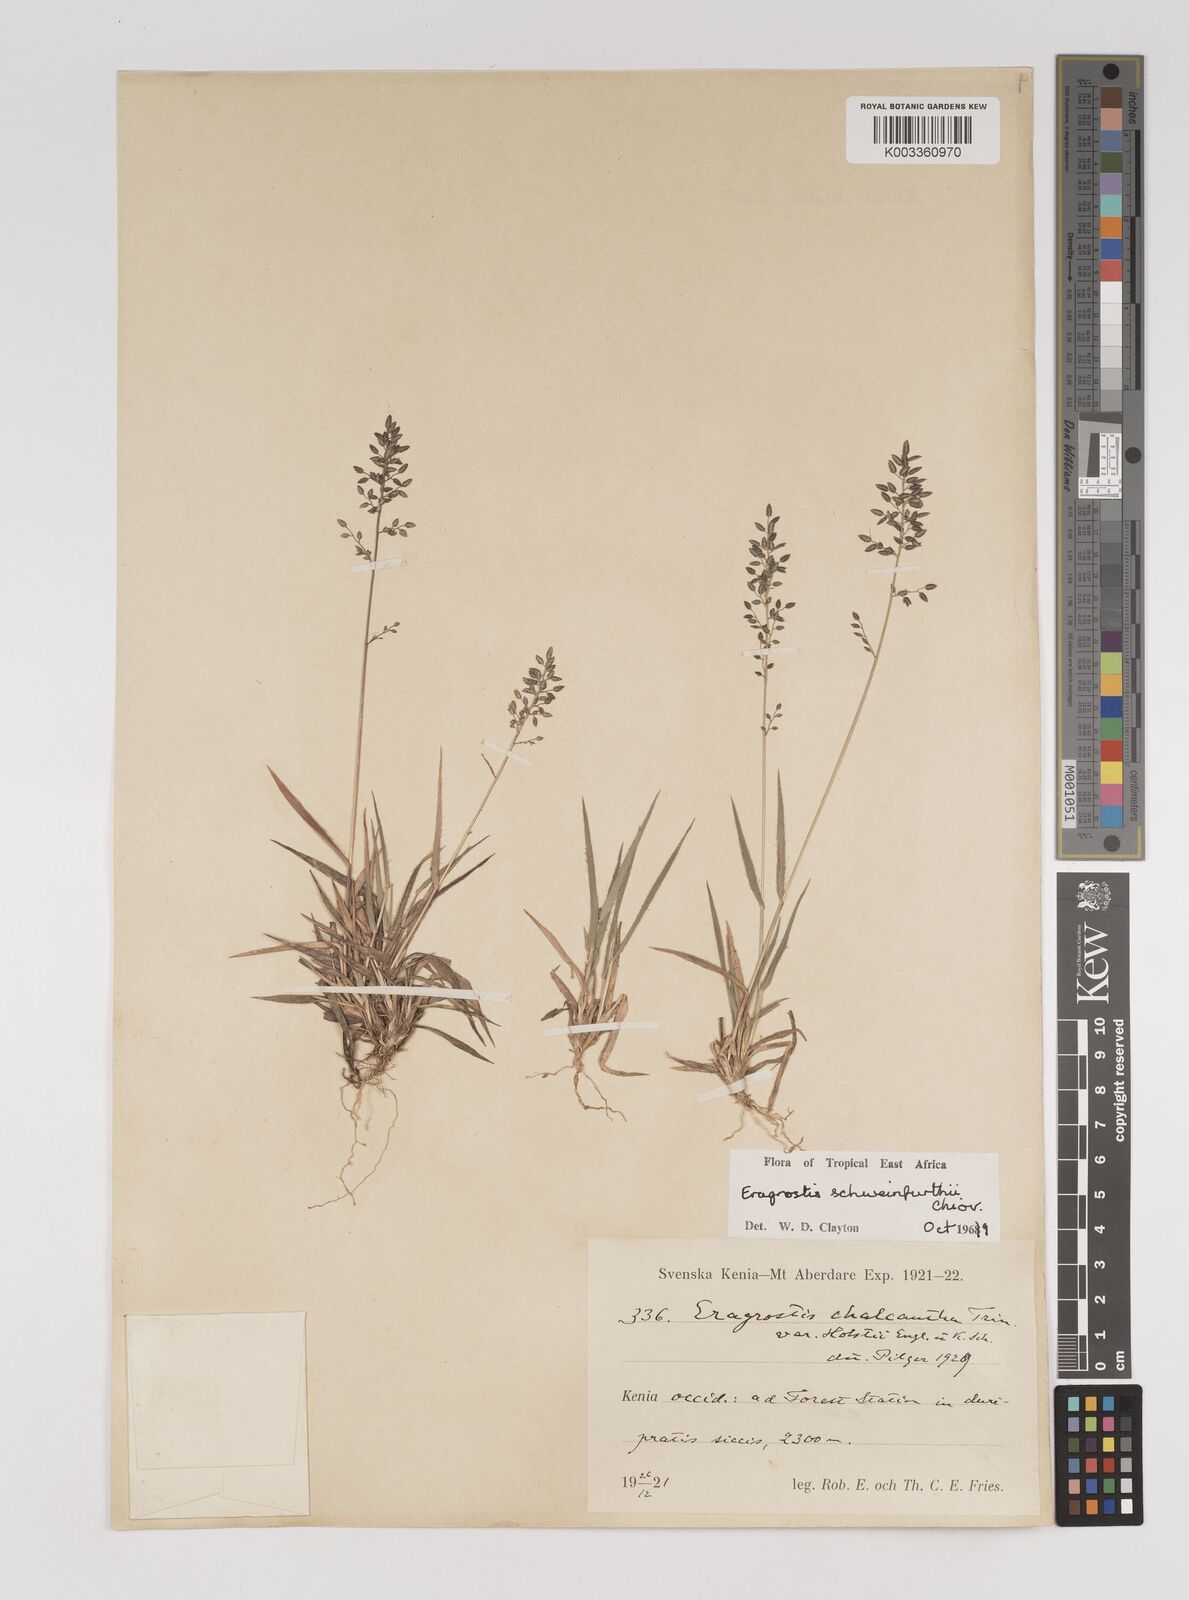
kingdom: Plantae
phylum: Tracheophyta
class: Liliopsida
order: Poales
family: Poaceae
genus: Eragrostis
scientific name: Eragrostis schweinfurthii
